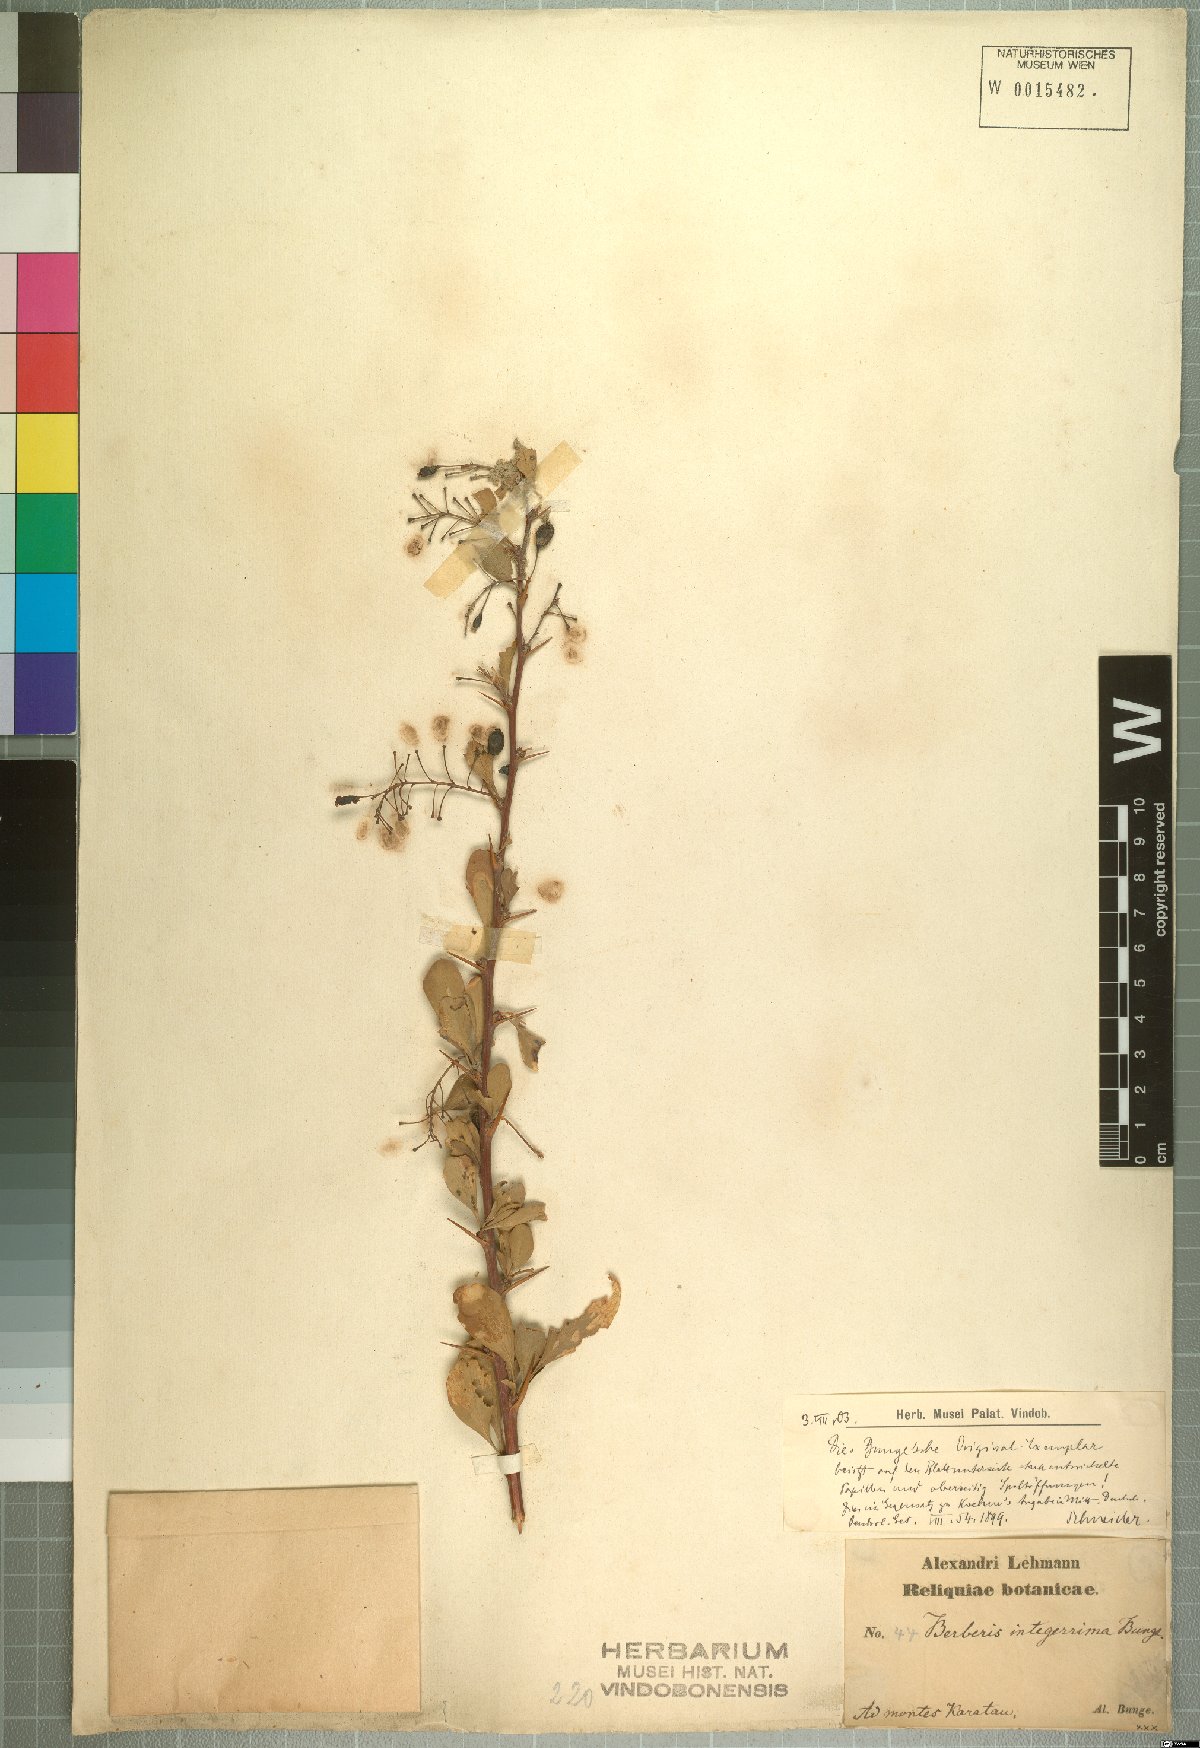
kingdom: Plantae
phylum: Tracheophyta
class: Magnoliopsida
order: Ranunculales
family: Berberidaceae
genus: Berberis
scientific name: Berberis integerrima
